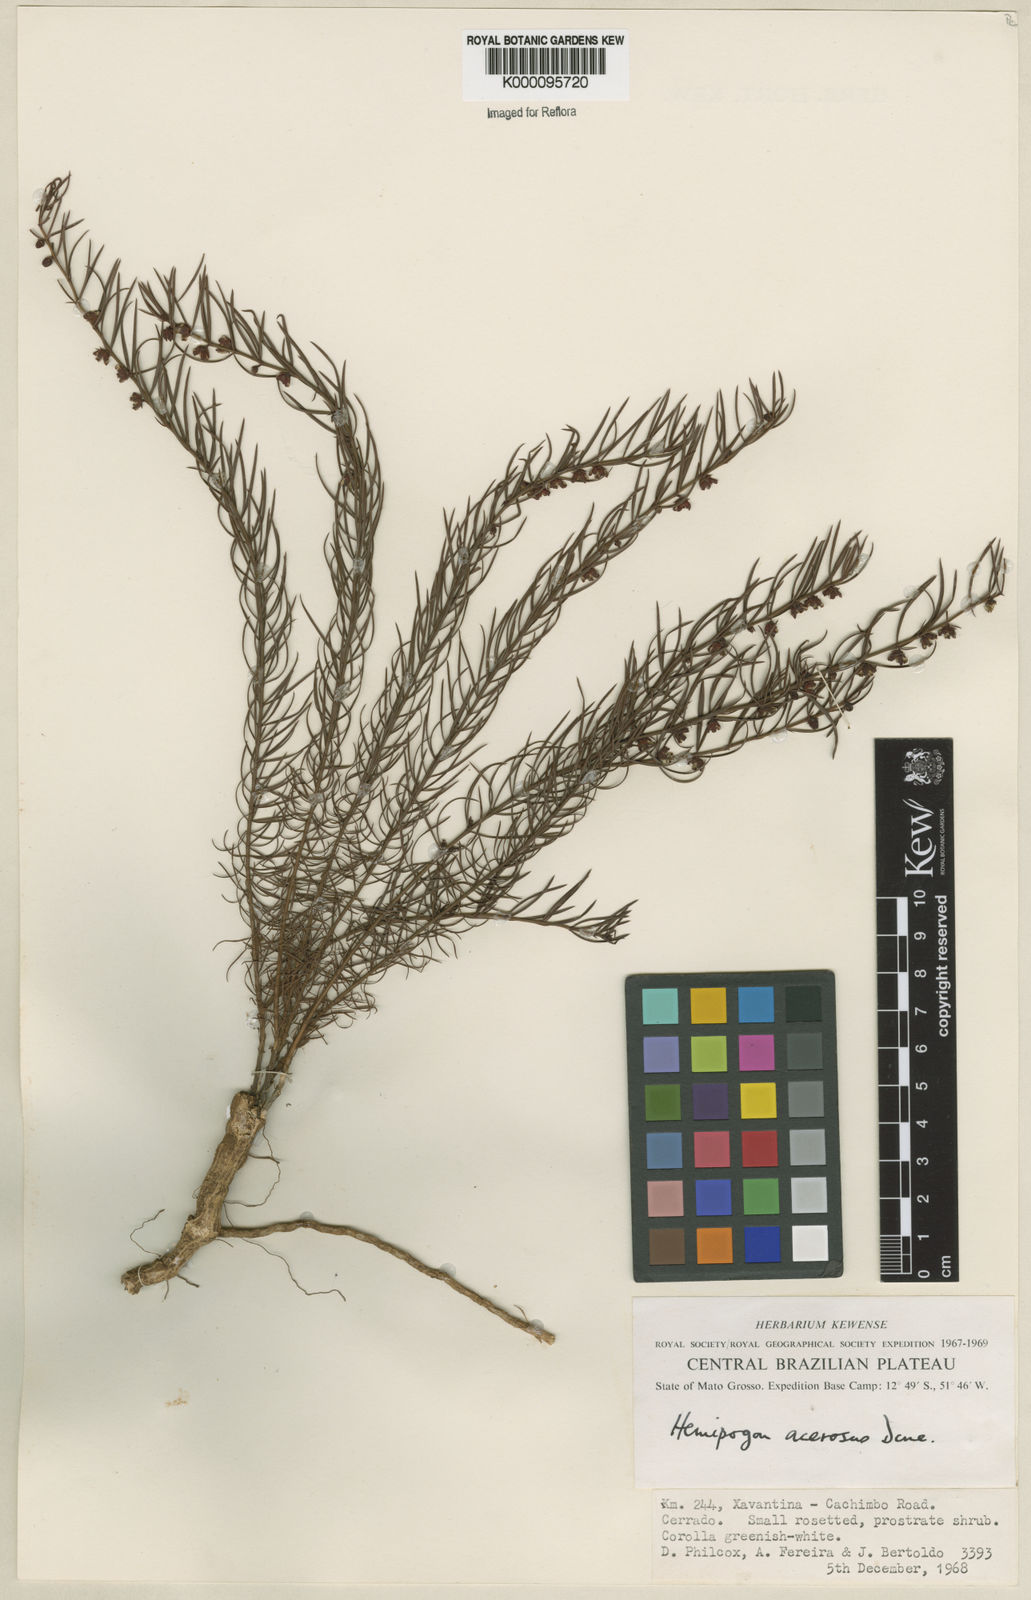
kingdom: Plantae
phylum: Tracheophyta
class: Magnoliopsida
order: Gentianales
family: Apocynaceae
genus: Hemipogon
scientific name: Hemipogon acerosus
